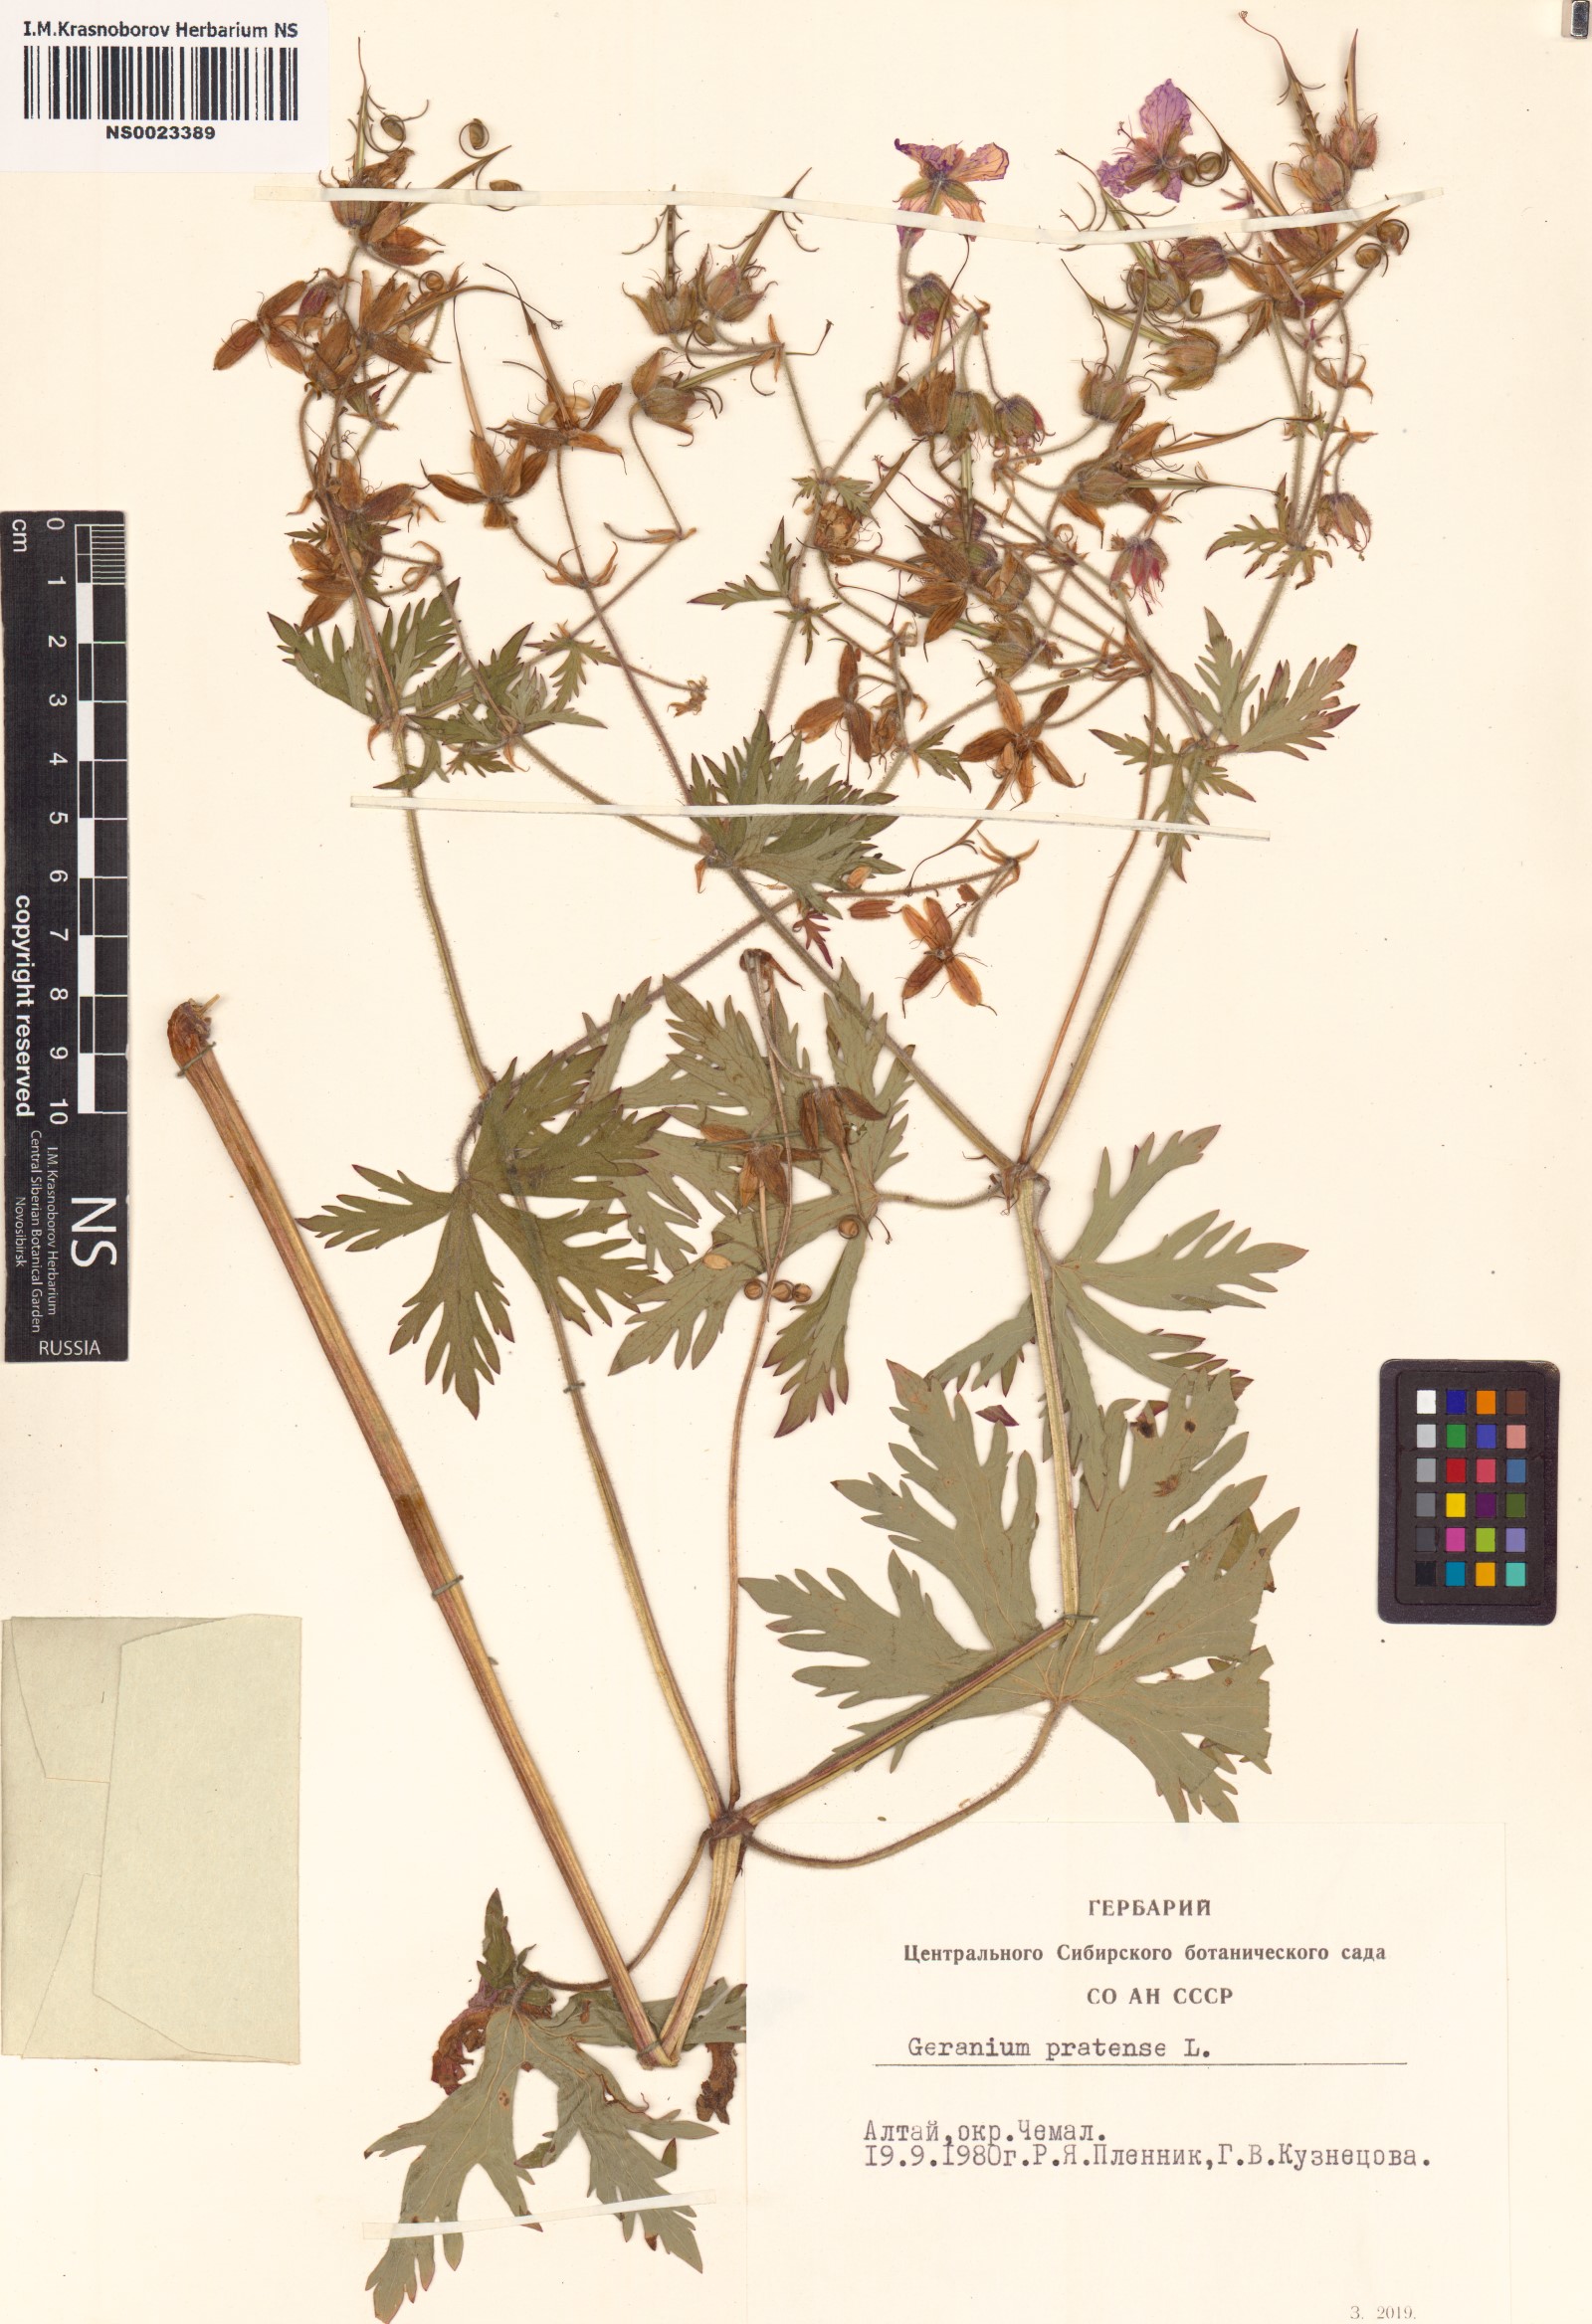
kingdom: Plantae
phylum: Tracheophyta
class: Magnoliopsida
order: Geraniales
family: Geraniaceae
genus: Geranium
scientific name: Geranium pratense
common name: Meadow crane's-bill
